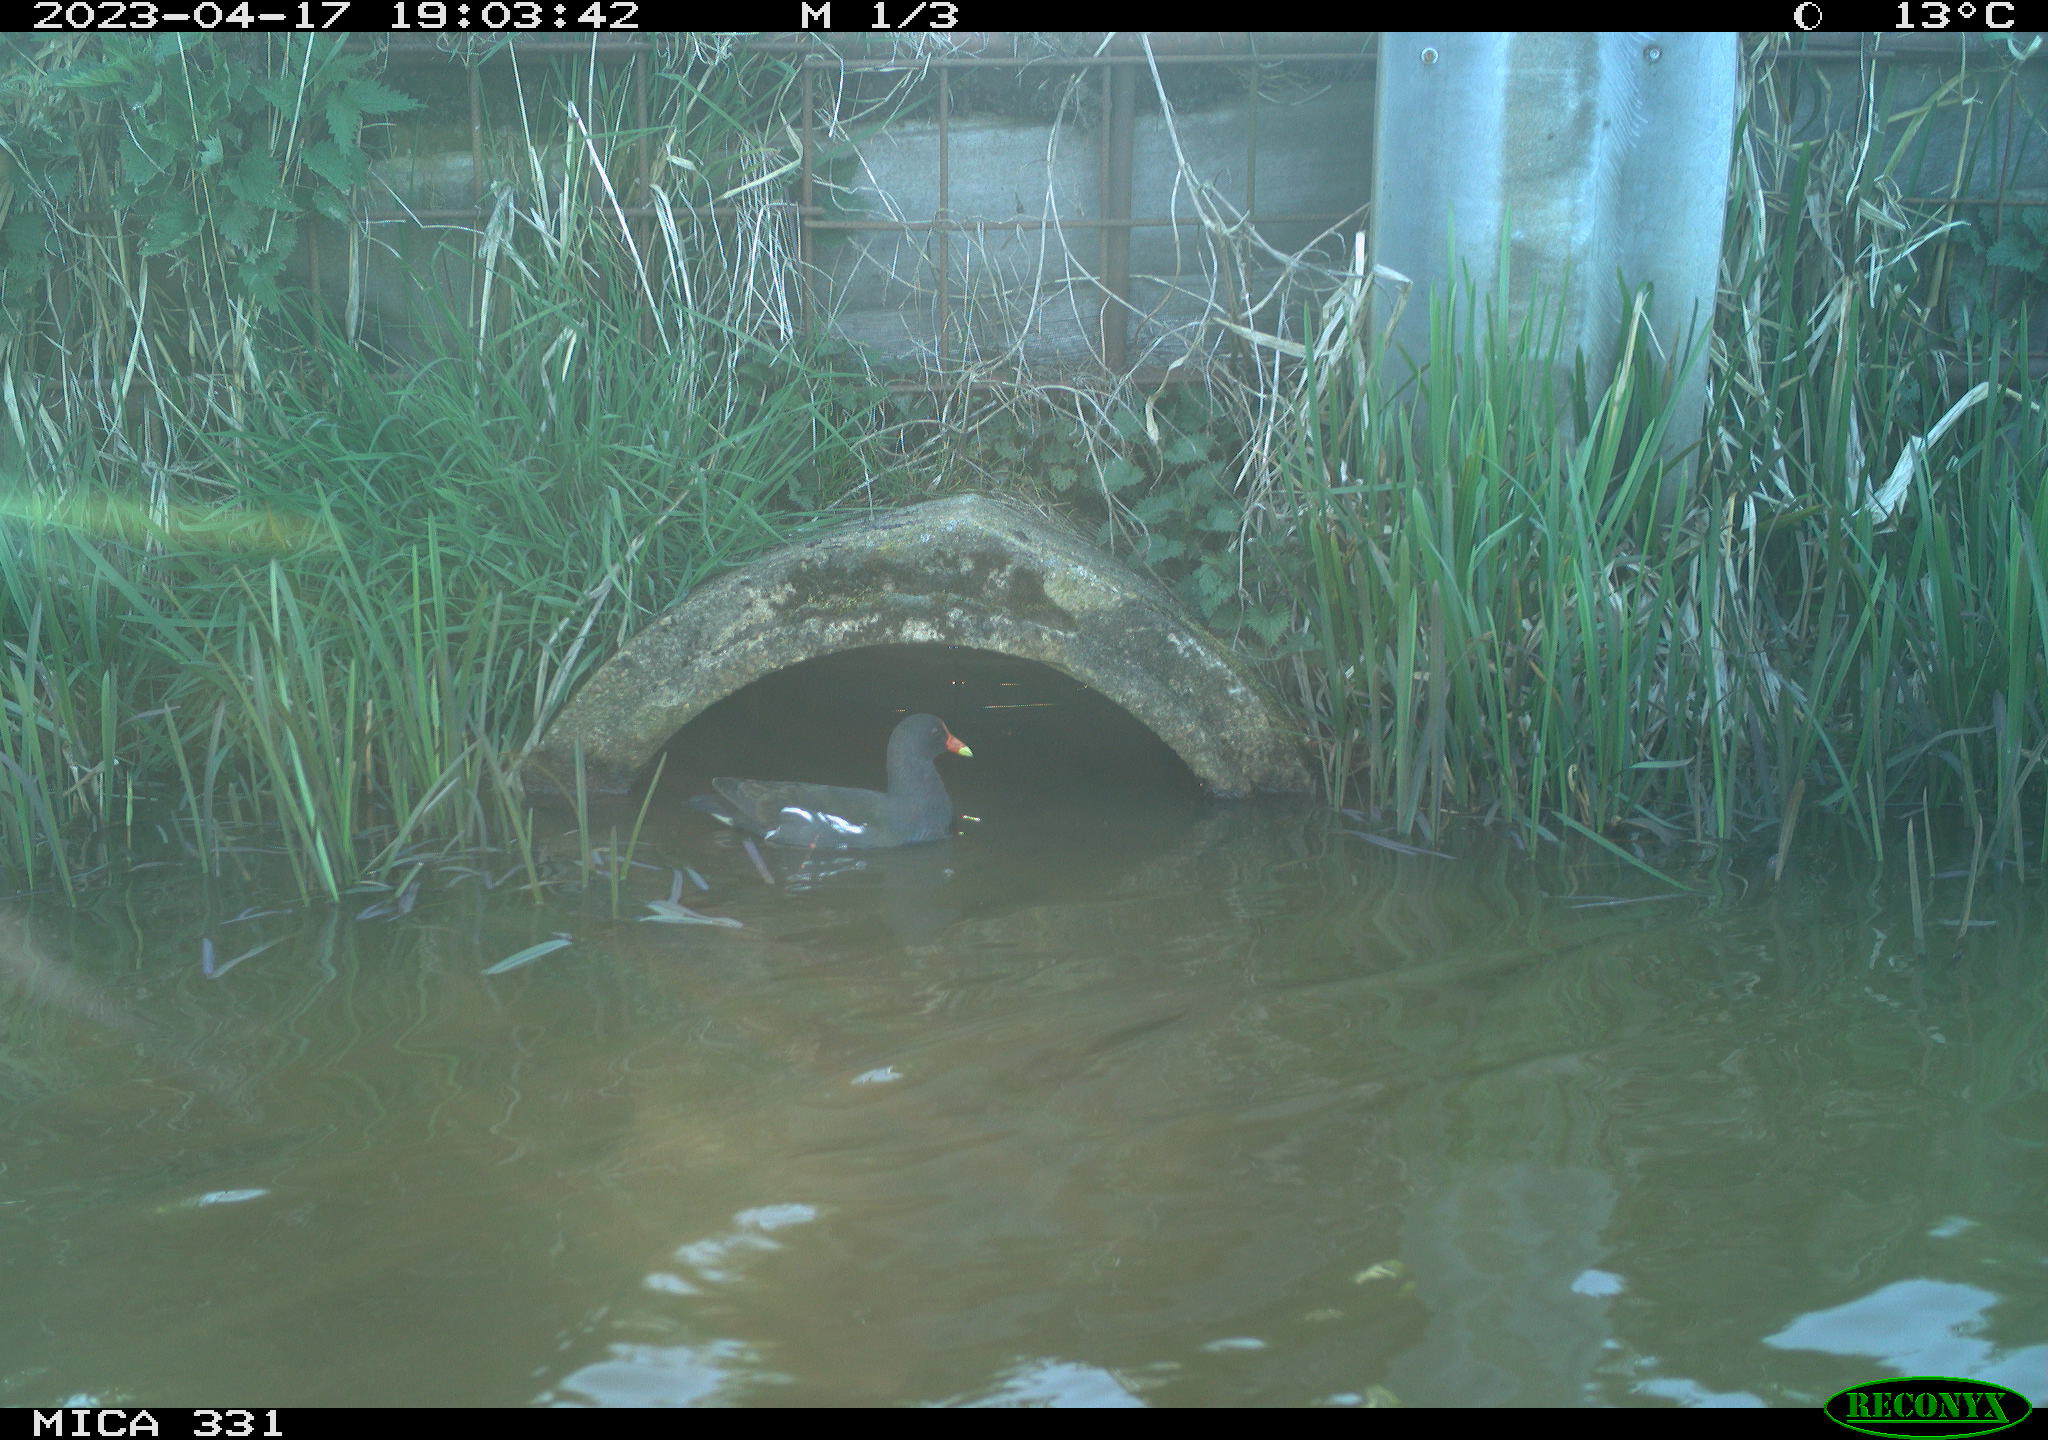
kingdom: Animalia
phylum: Chordata
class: Aves
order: Gruiformes
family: Rallidae
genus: Gallinula
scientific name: Gallinula chloropus
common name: Common moorhen
